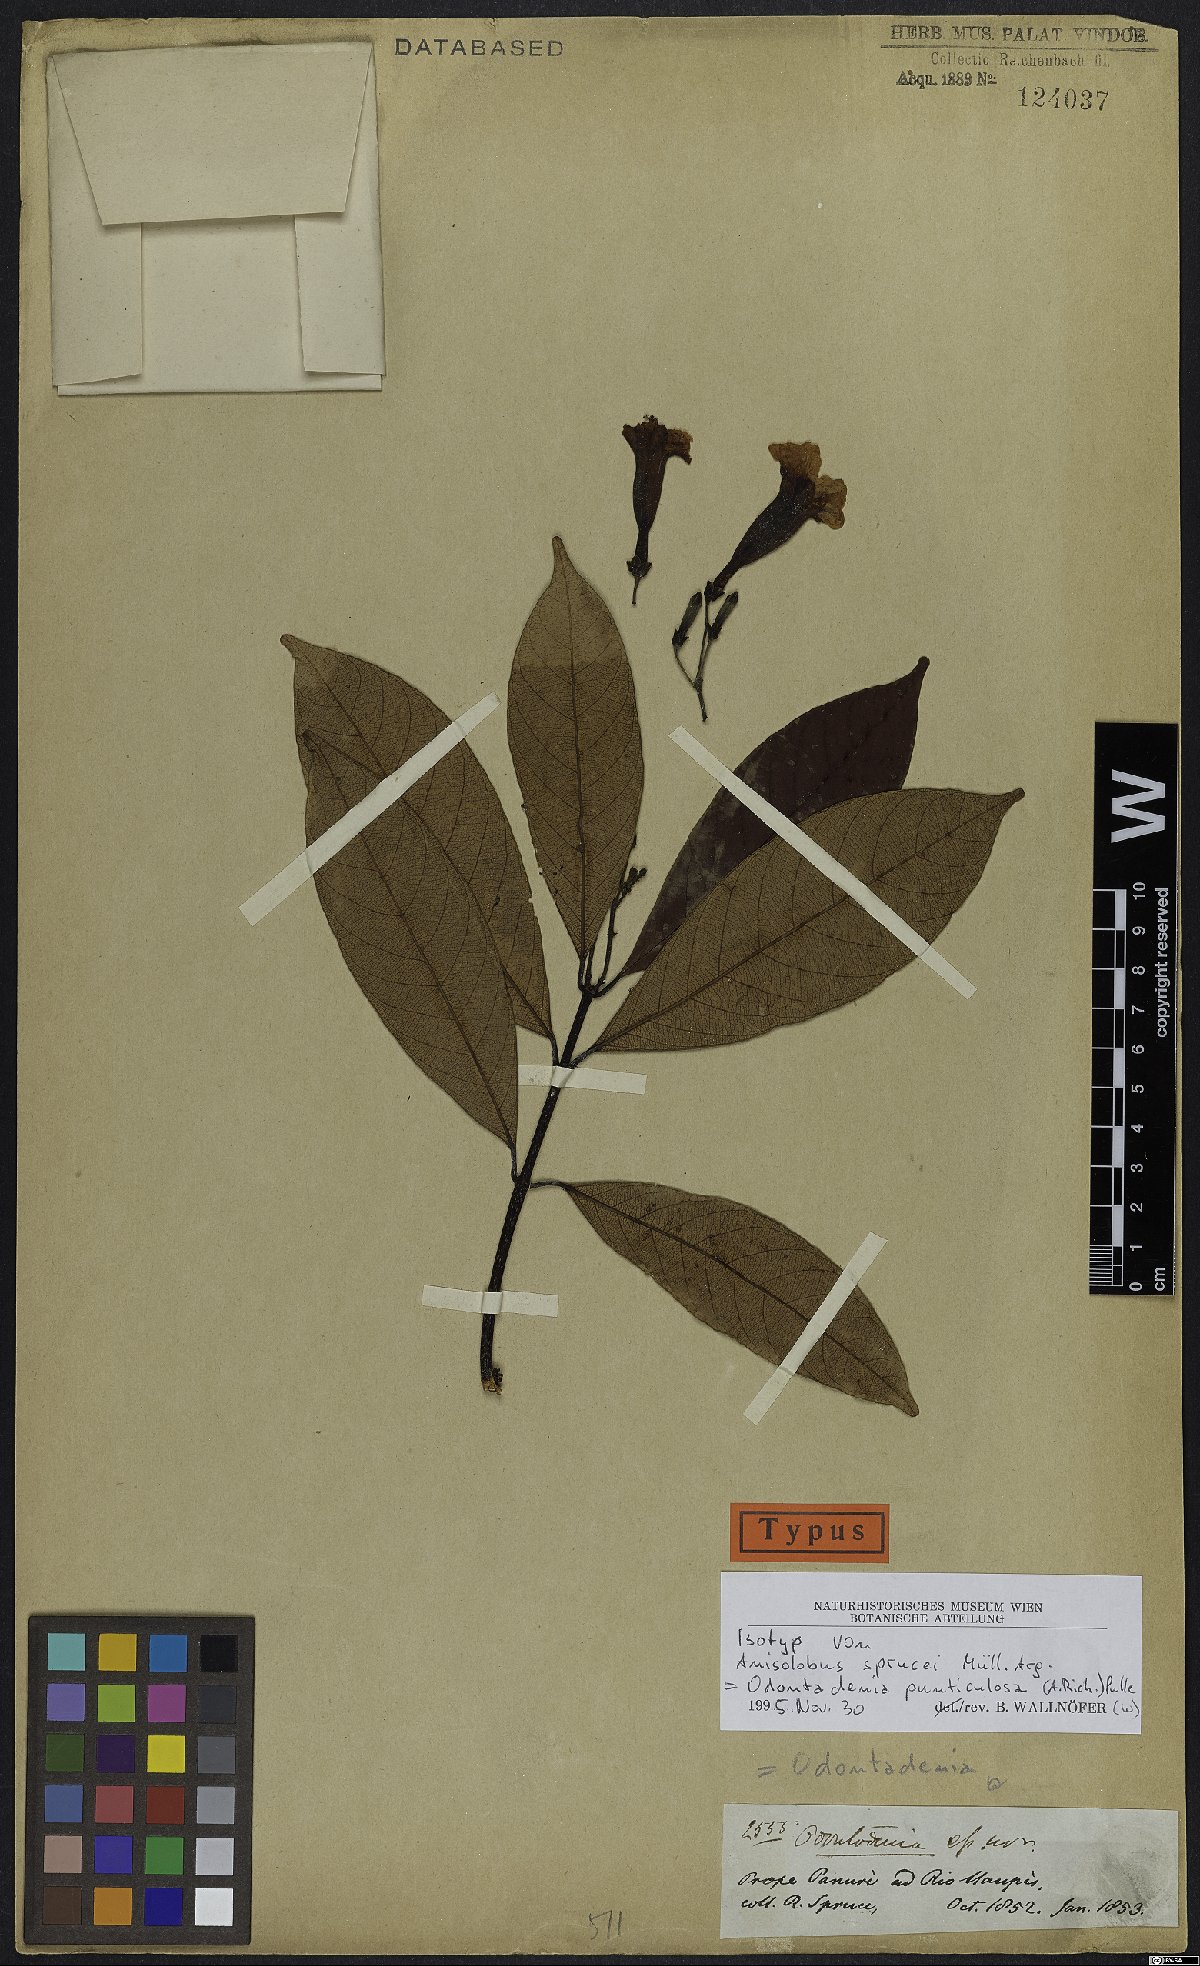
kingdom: Plantae
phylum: Tracheophyta
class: Magnoliopsida
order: Gentianales
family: Apocynaceae
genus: Odontadenia
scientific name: Odontadenia puncticulosa
